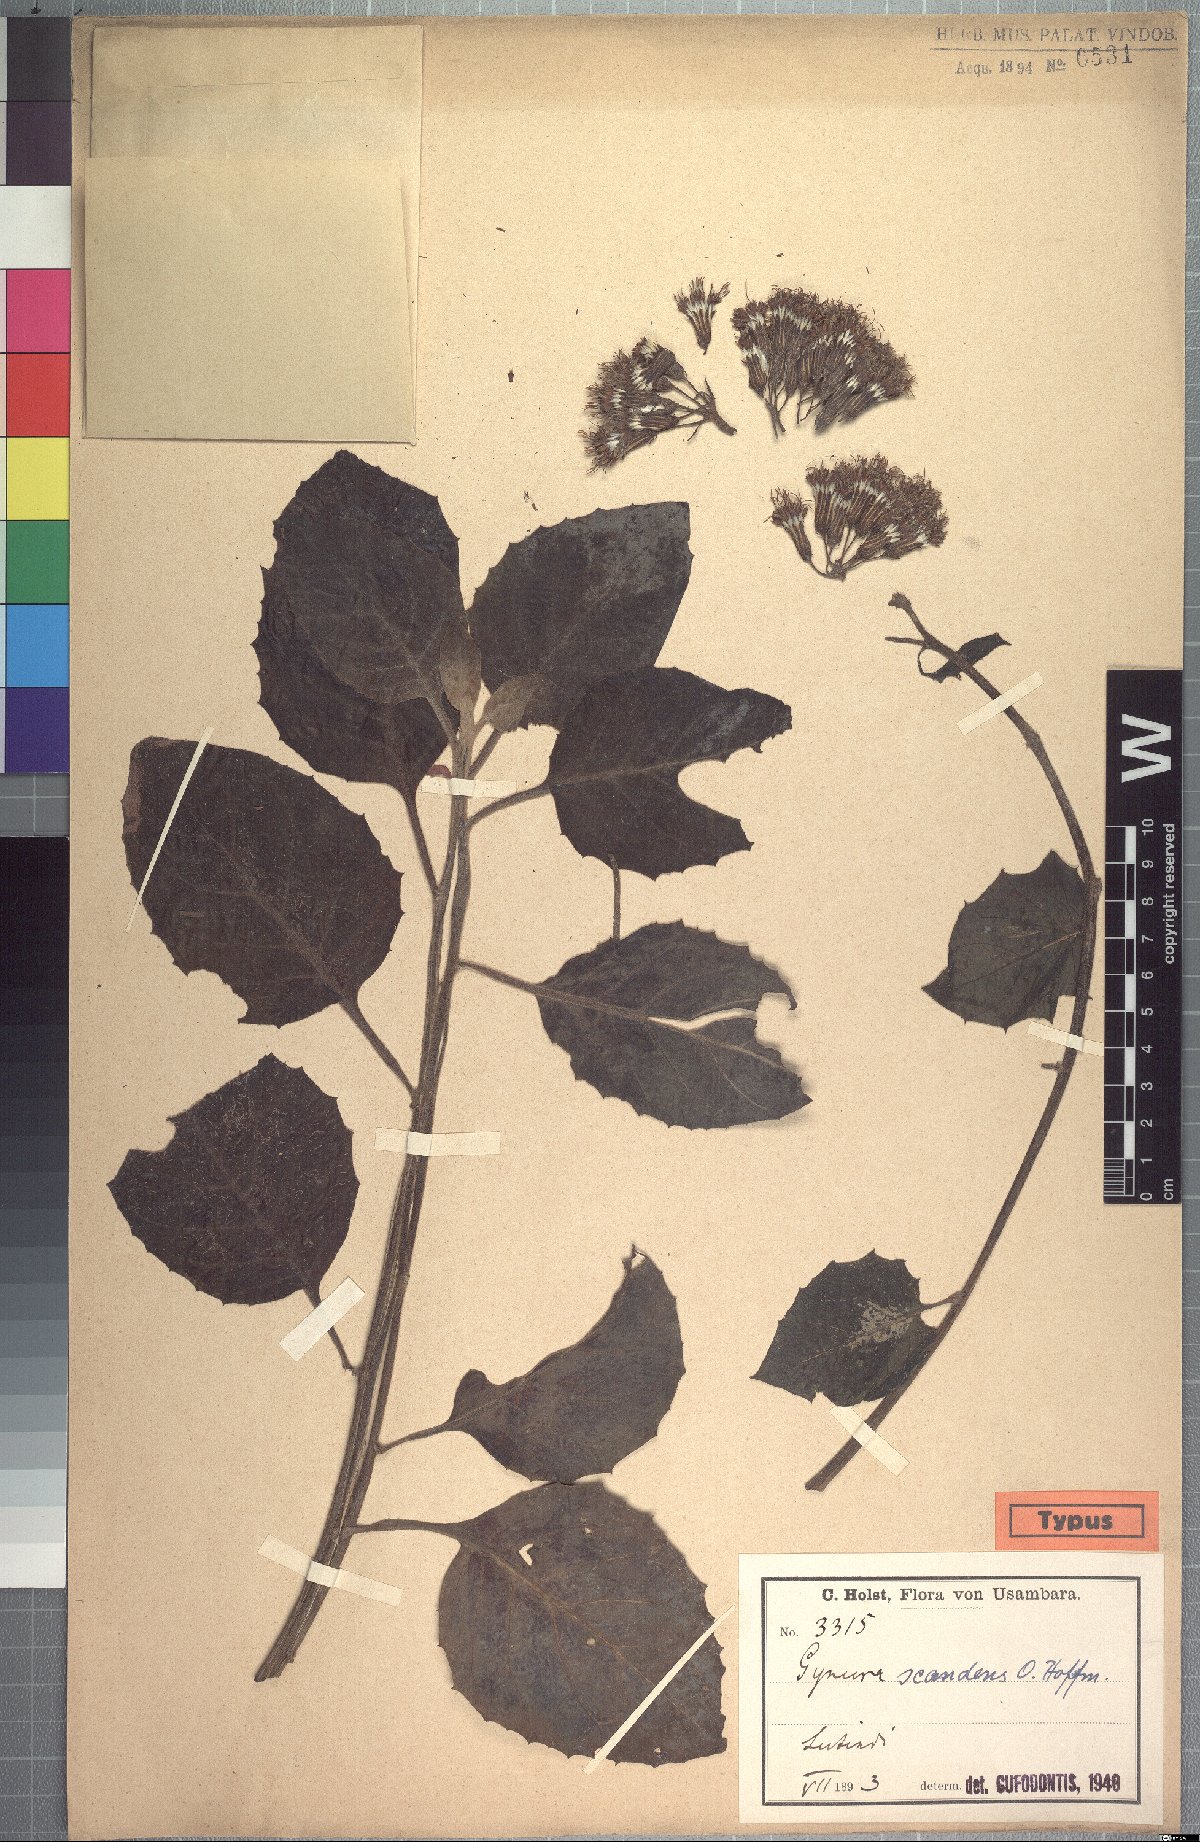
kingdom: Plantae
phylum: Tracheophyta
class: Magnoliopsida
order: Asterales
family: Asteraceae
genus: Gynura
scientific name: Gynura scandens
